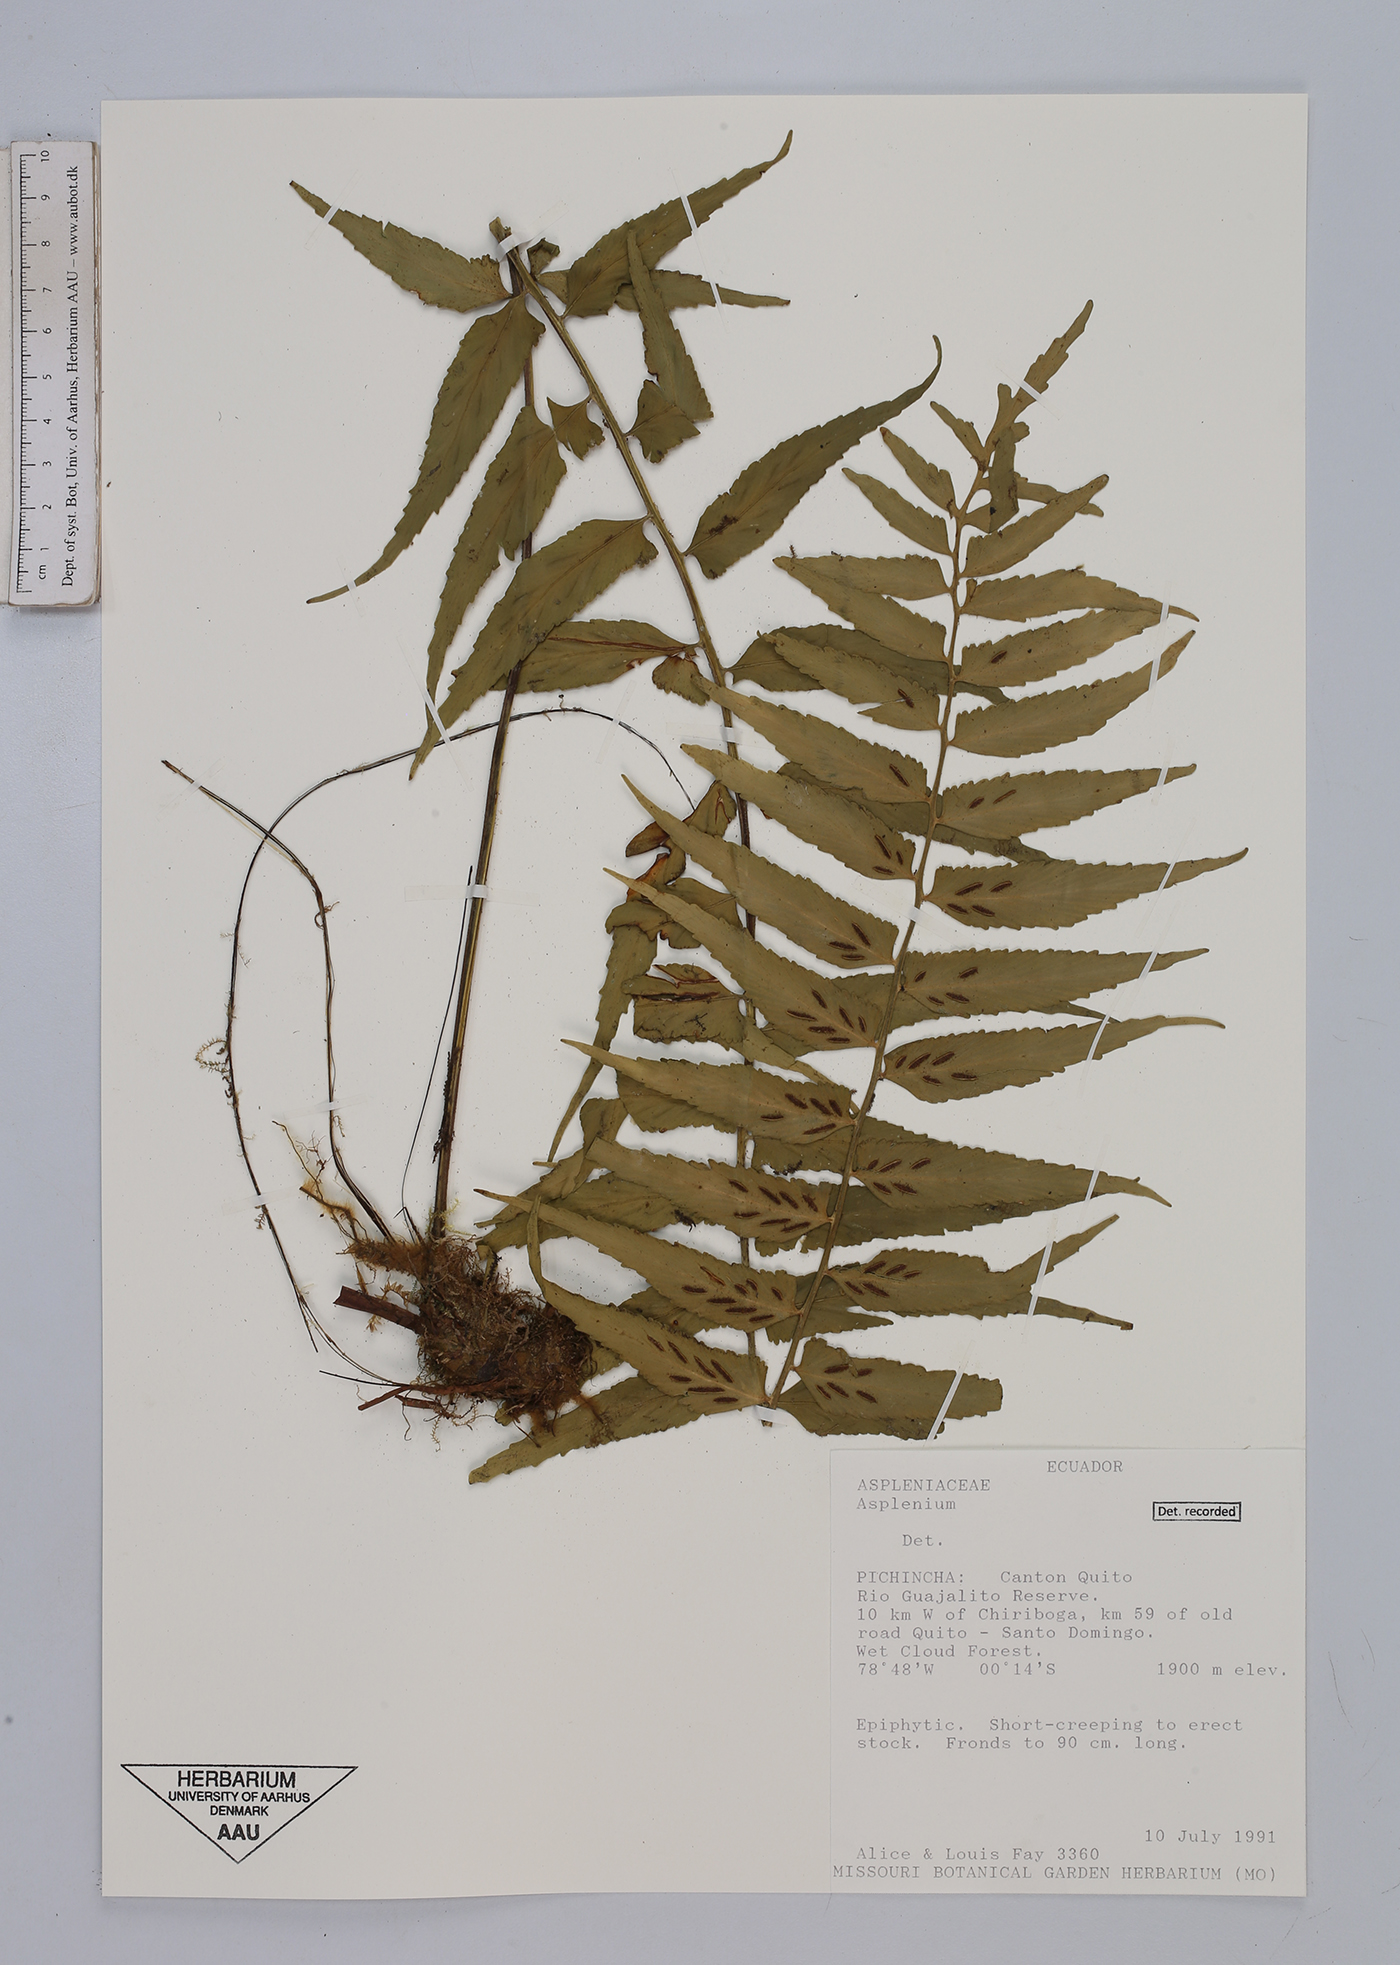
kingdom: Plantae
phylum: Tracheophyta
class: Polypodiopsida
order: Polypodiales
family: Aspleniaceae
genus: Asplenium
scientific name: Asplenium
